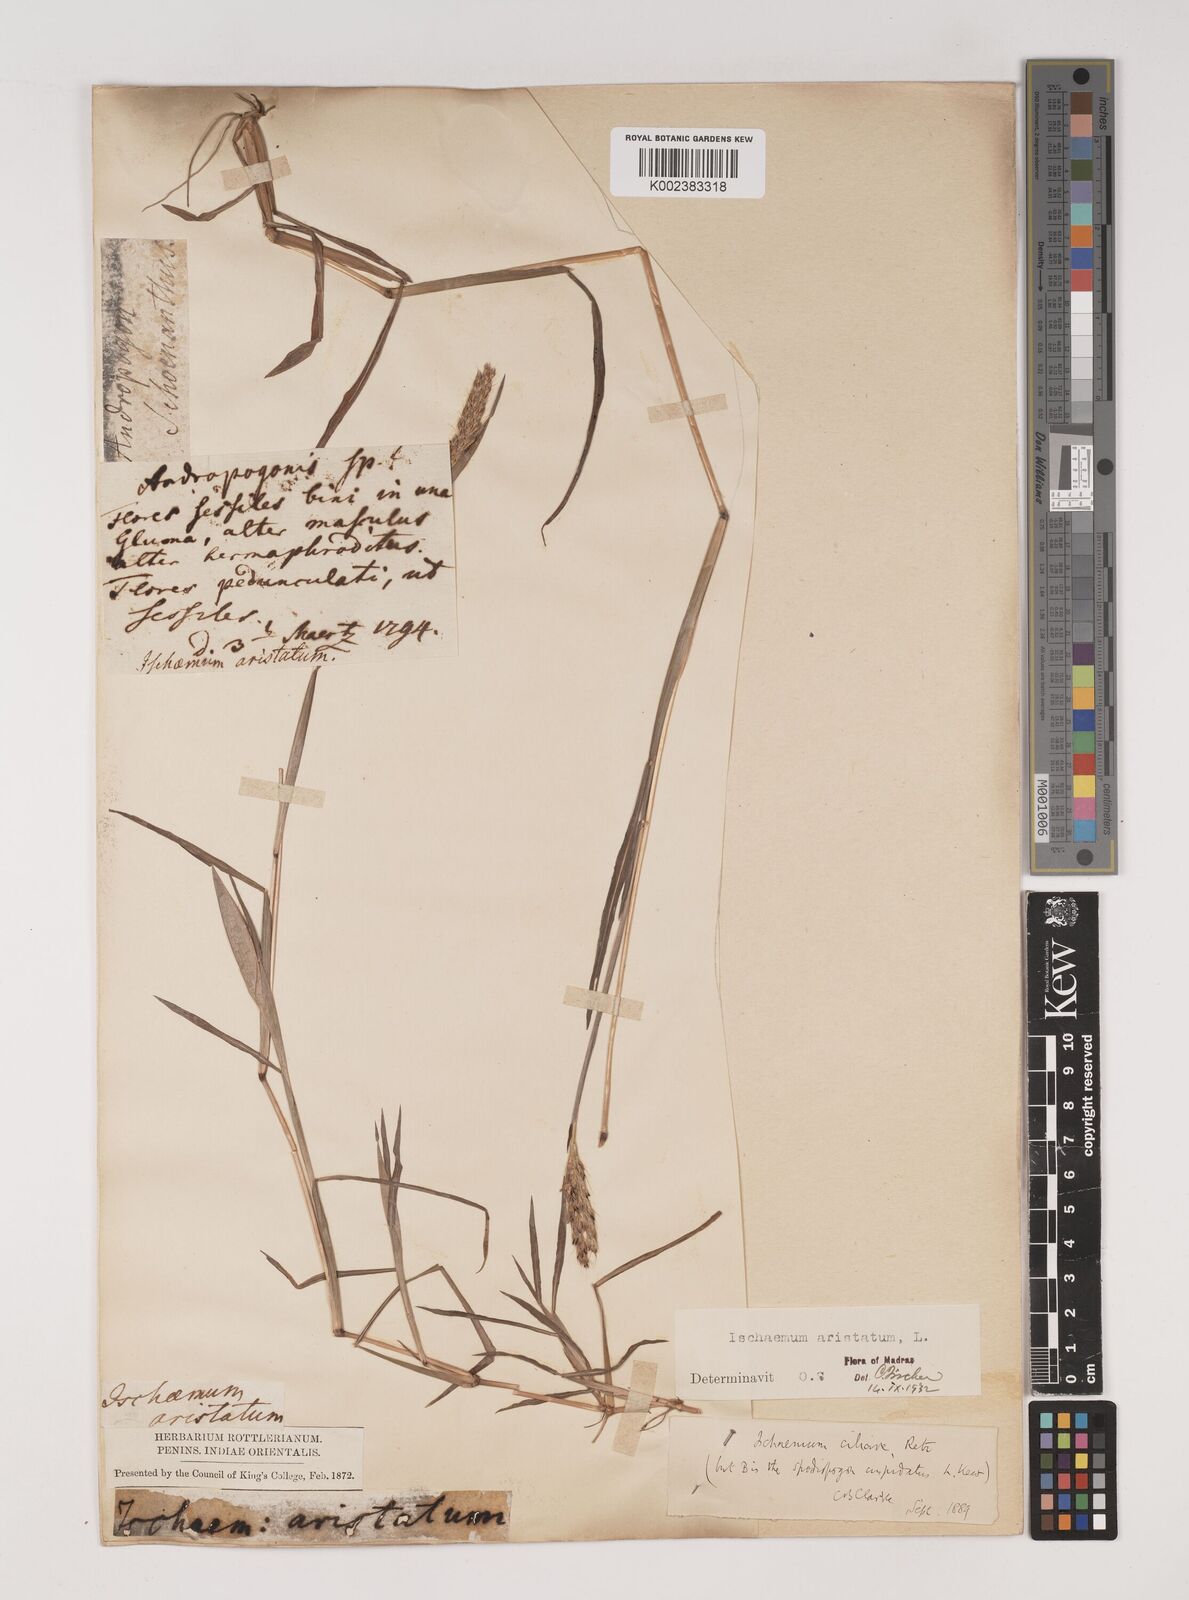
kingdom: Plantae
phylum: Tracheophyta
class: Liliopsida
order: Poales
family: Poaceae
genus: Polytrias
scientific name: Polytrias indica
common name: Indian murainagrass
